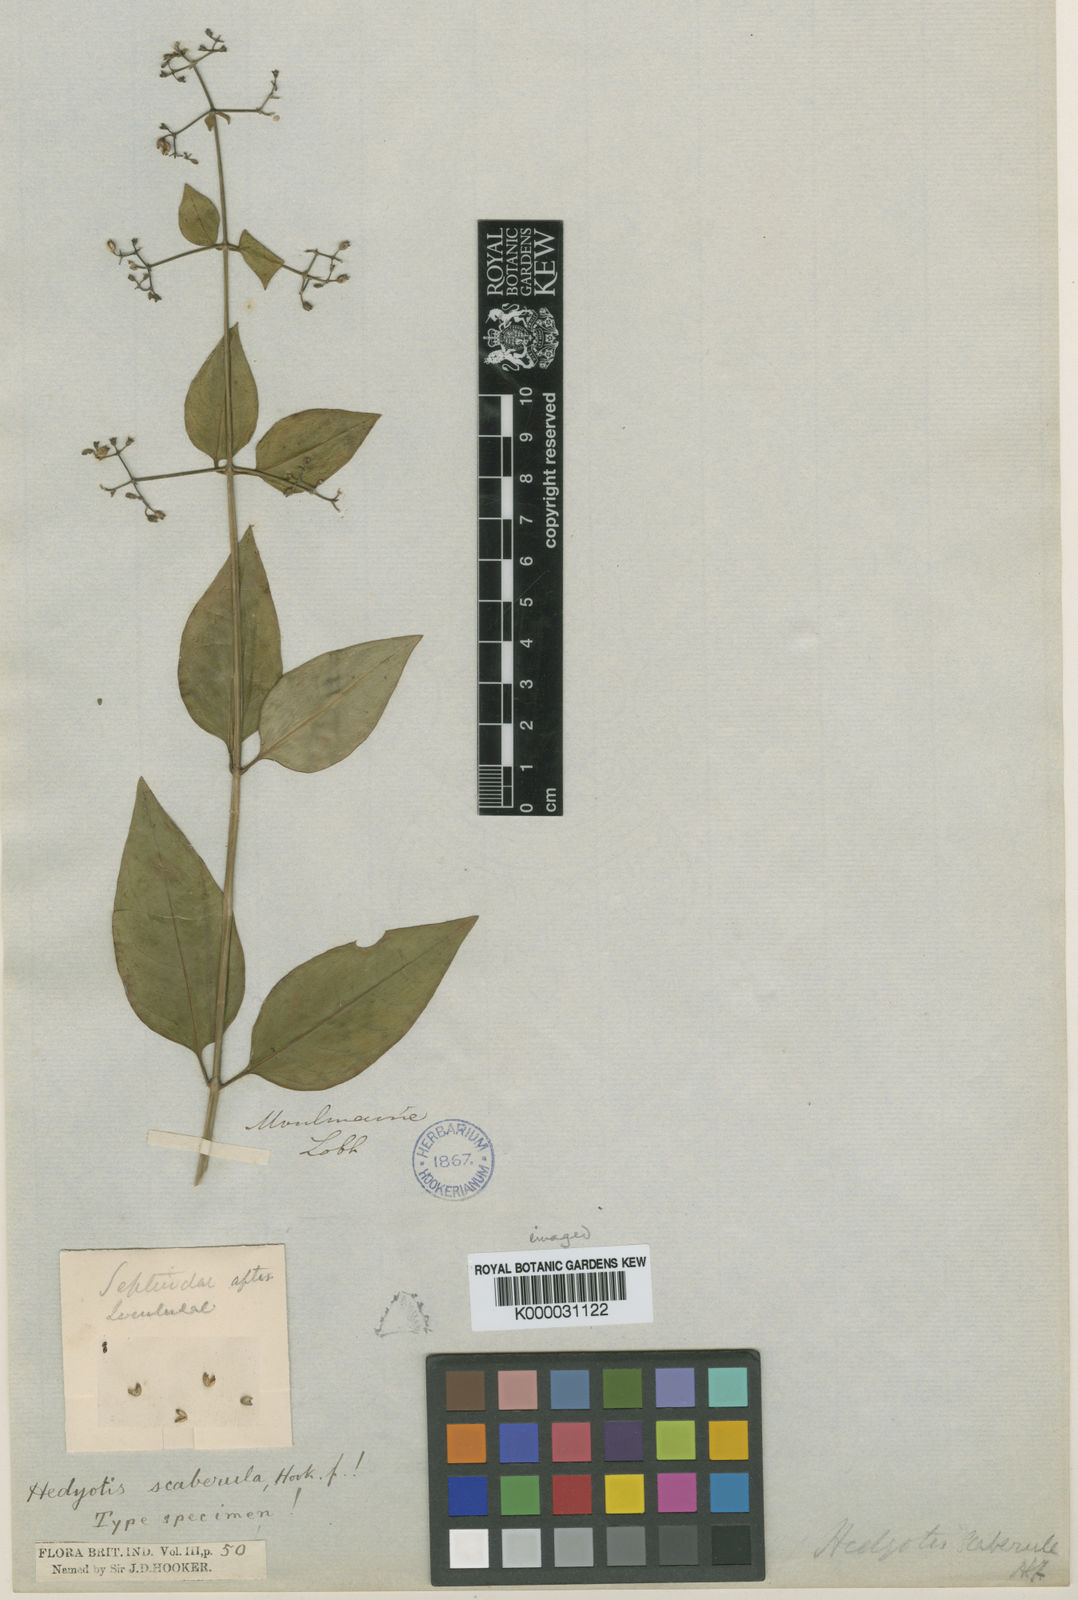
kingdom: Plantae
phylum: Tracheophyta
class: Magnoliopsida
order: Gentianales
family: Rubiaceae
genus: Hedyotis
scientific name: Hedyotis scaberula
